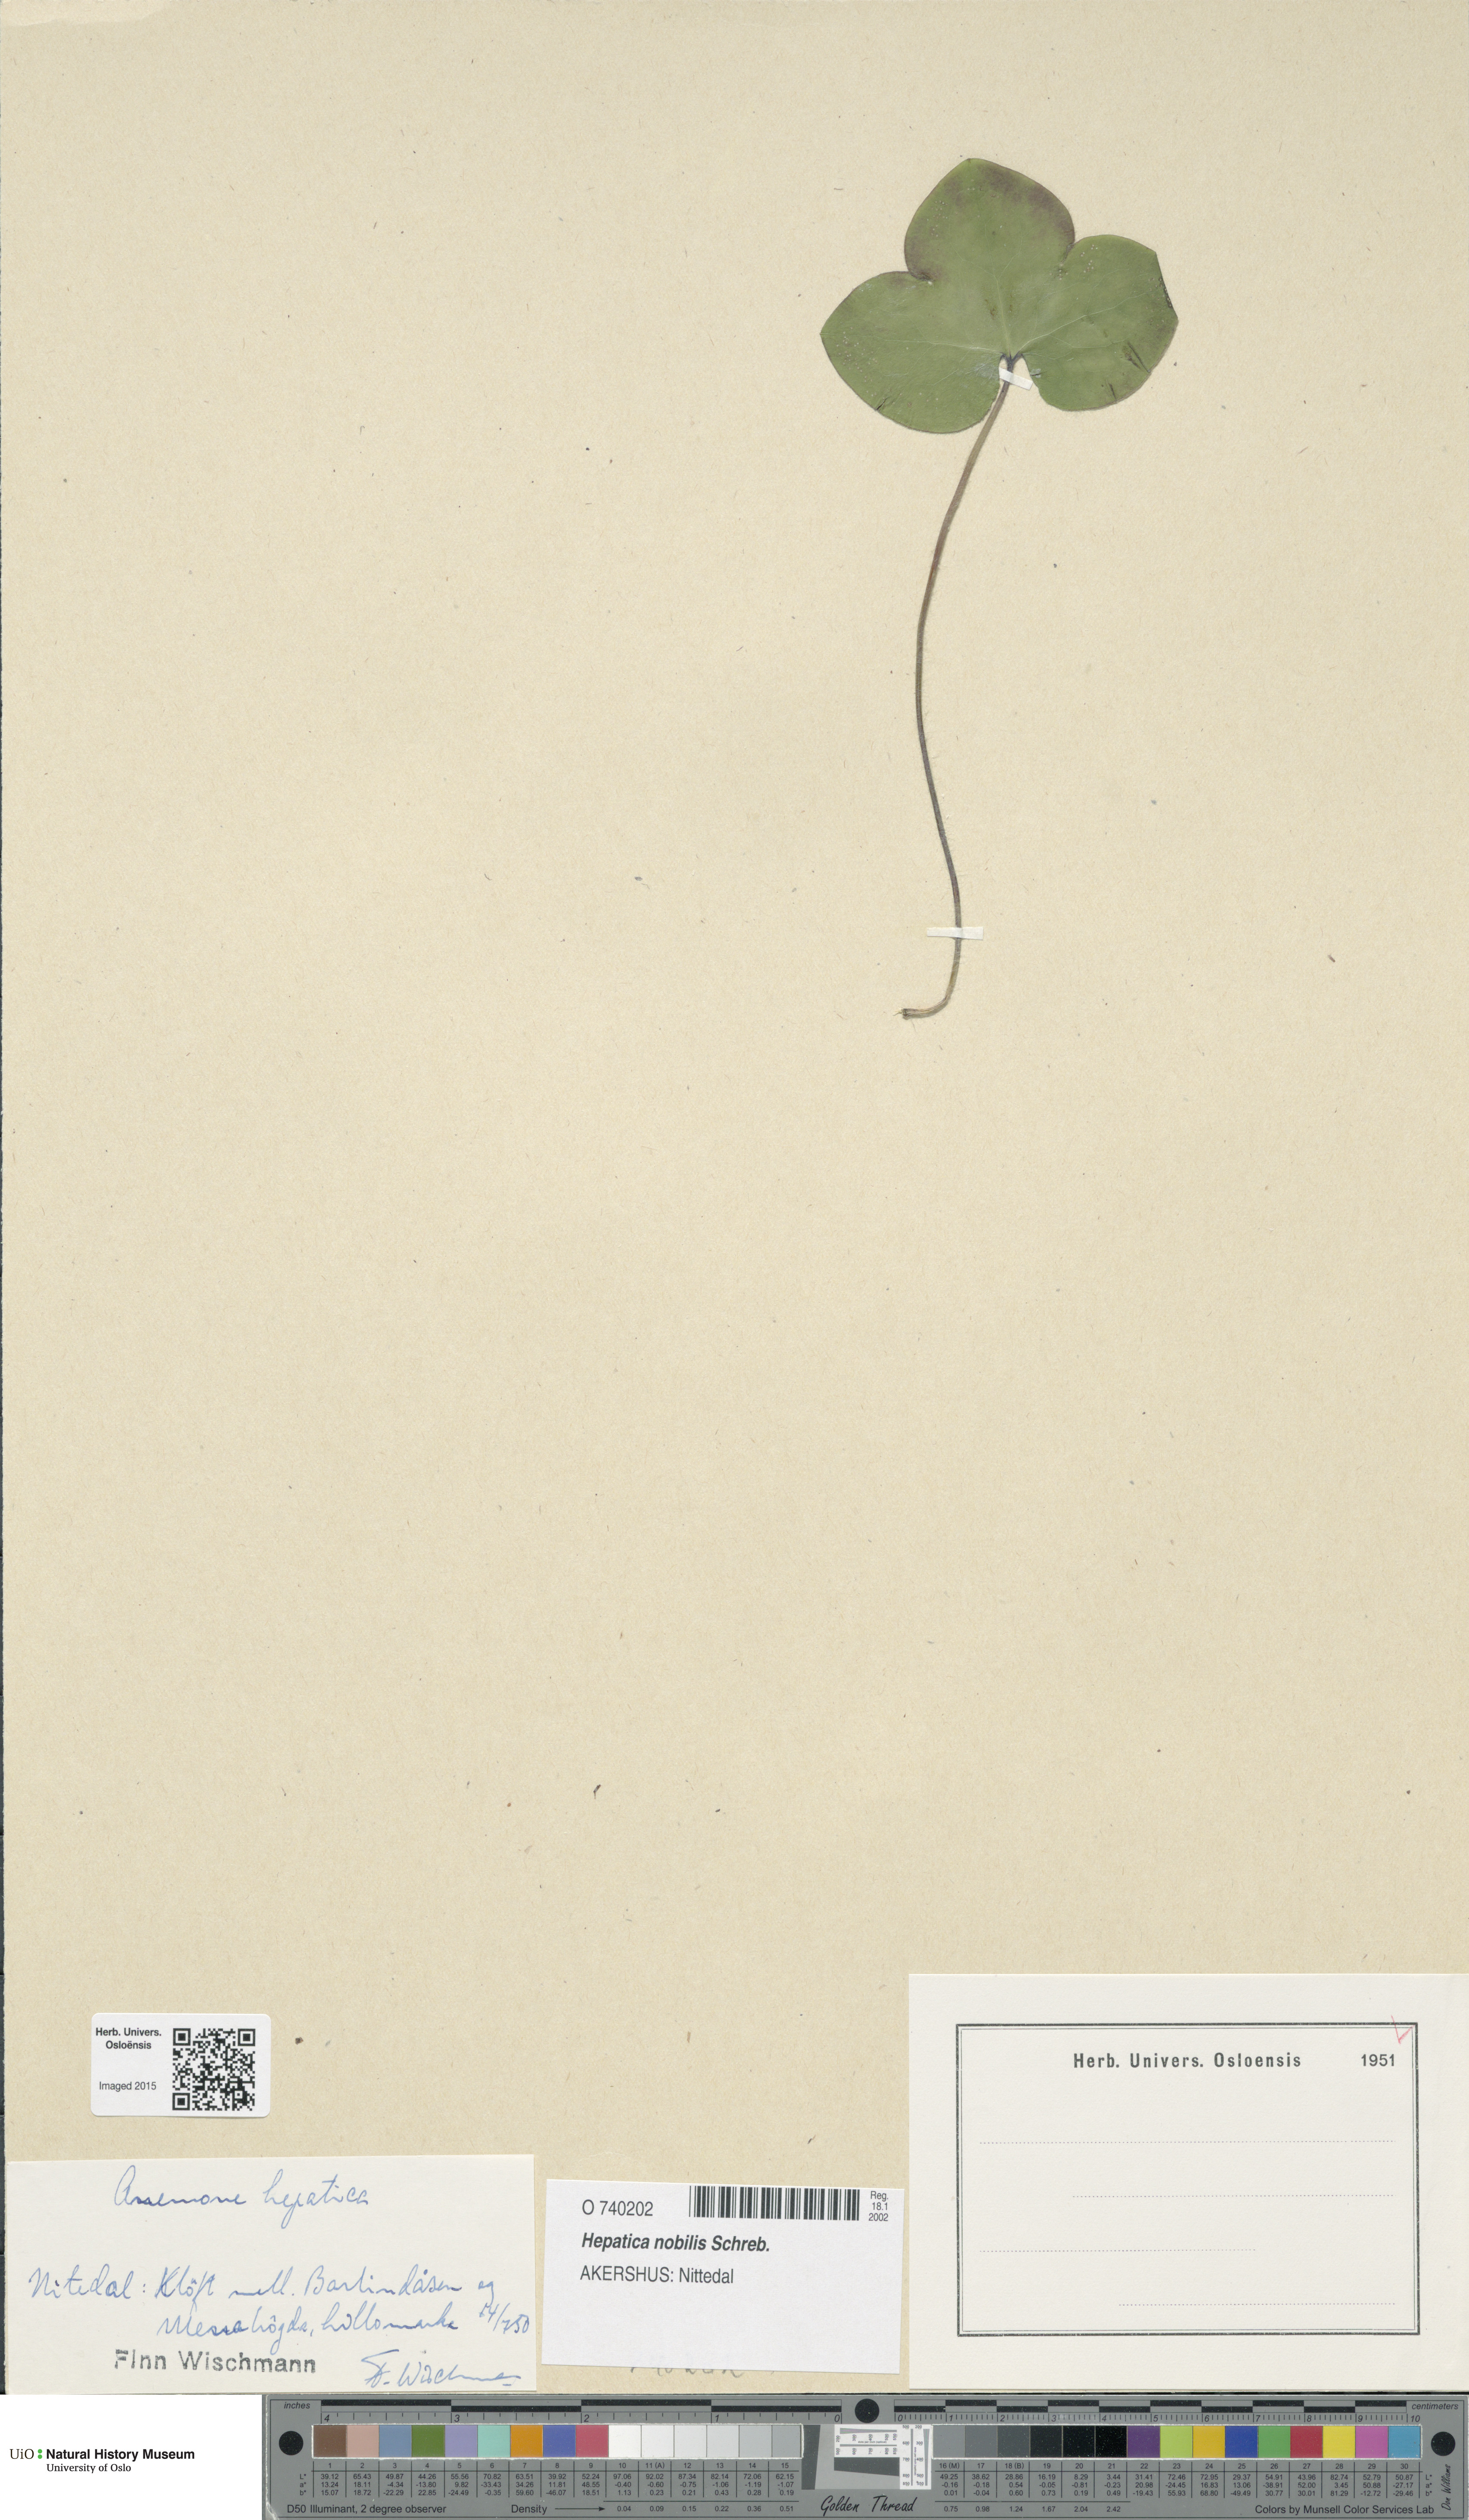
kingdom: Plantae
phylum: Tracheophyta
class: Magnoliopsida
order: Ranunculales
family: Ranunculaceae
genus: Hepatica
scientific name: Hepatica nobilis
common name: Liverleaf
